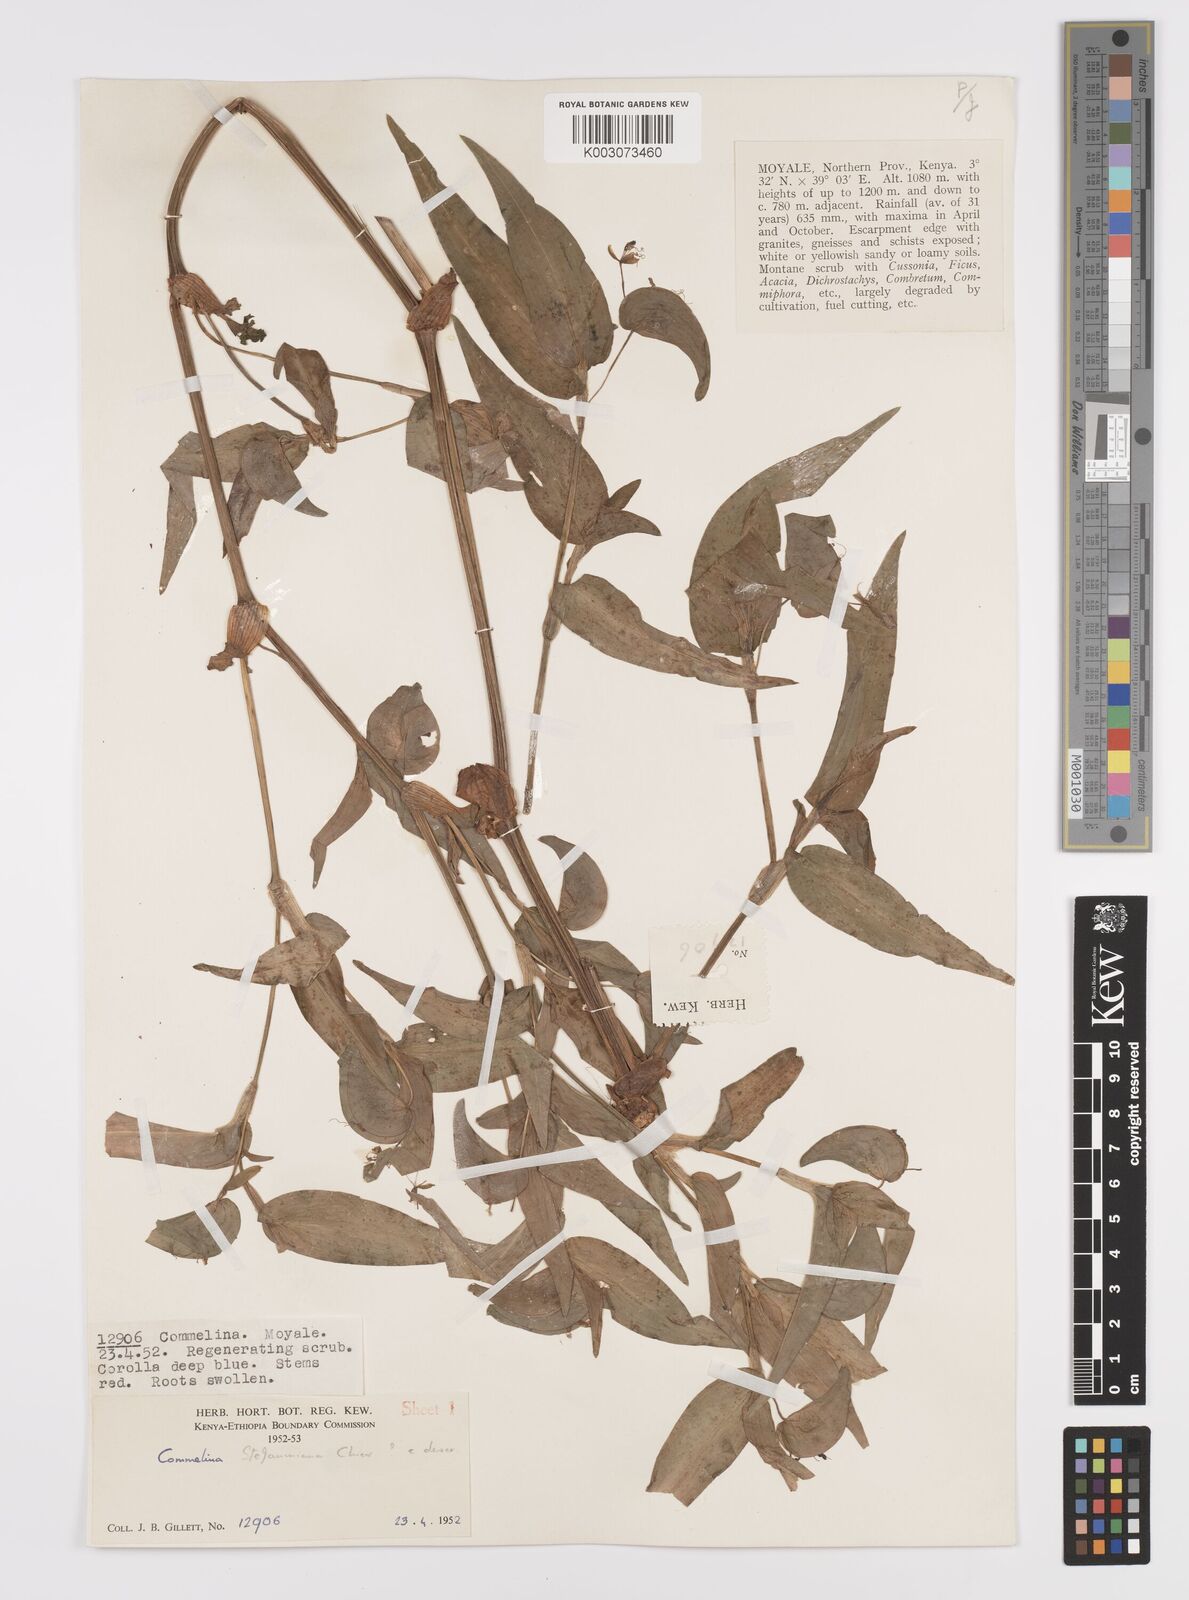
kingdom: Plantae
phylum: Tracheophyta
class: Liliopsida
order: Commelinales
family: Commelinaceae
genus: Commelina
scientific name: Commelina stefaniniana
